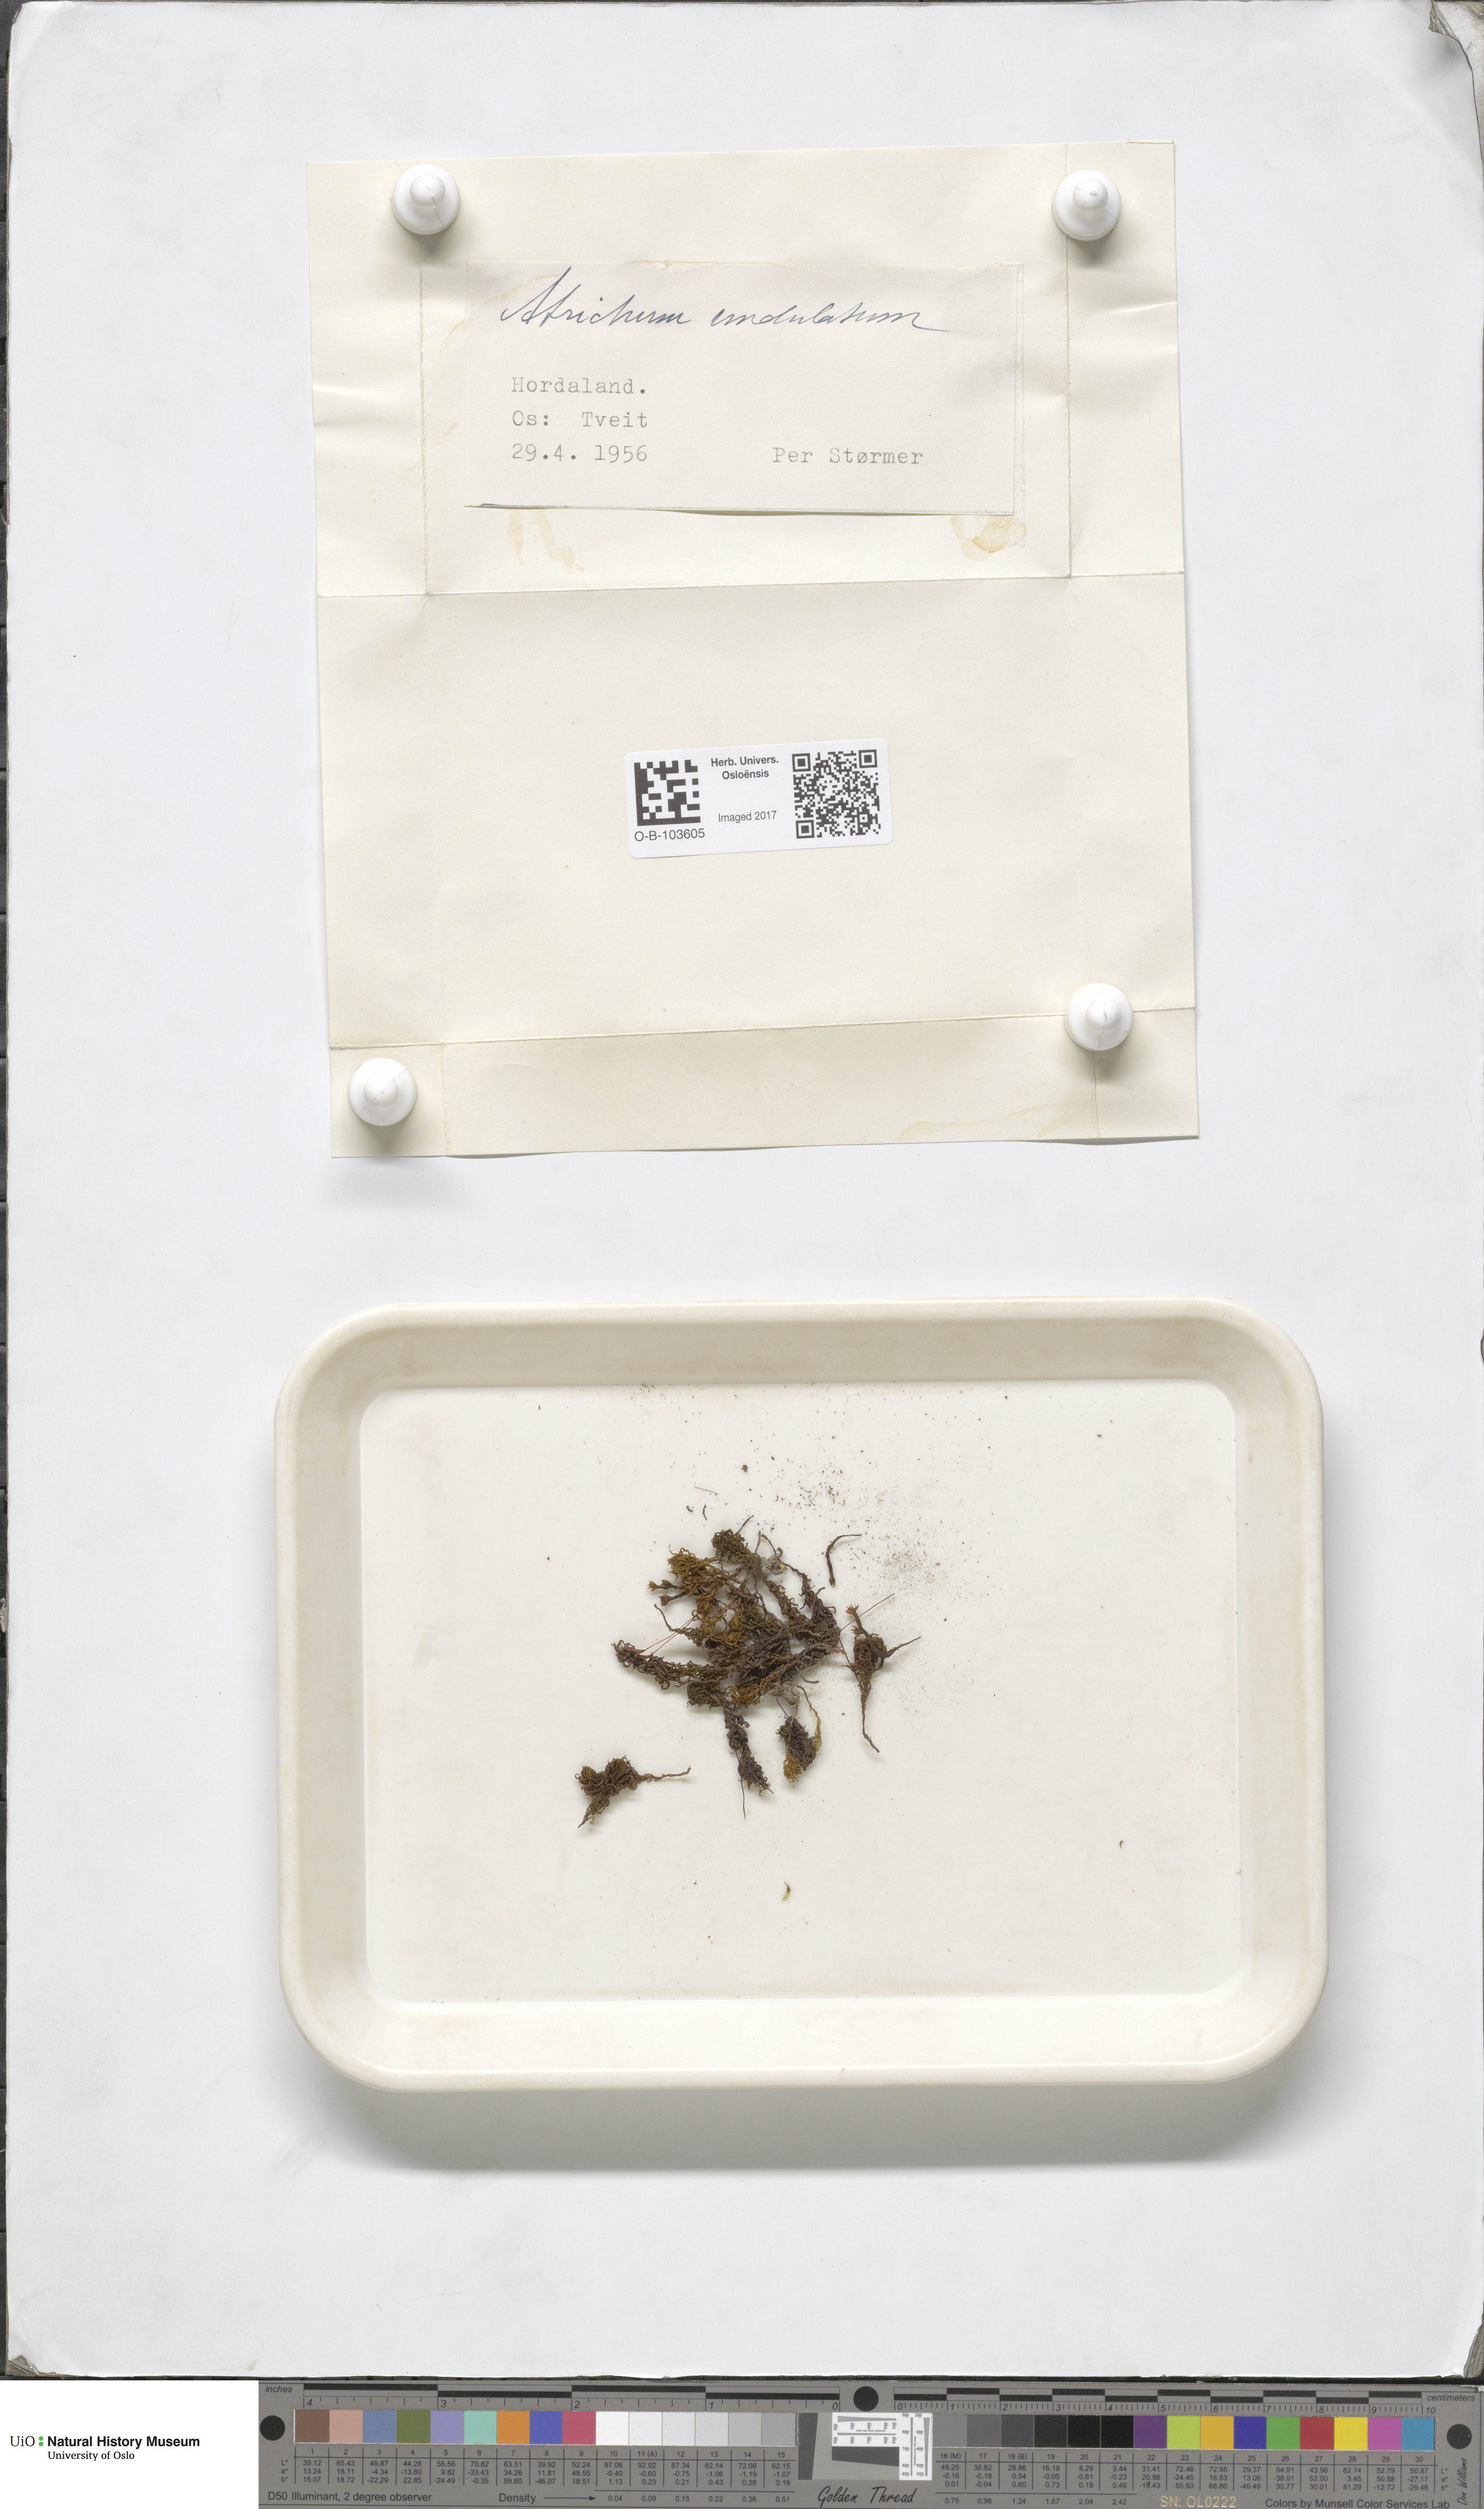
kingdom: Plantae
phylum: Bryophyta
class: Polytrichopsida
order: Polytrichales
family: Polytrichaceae
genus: Atrichum
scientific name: Atrichum undulatum
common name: Common smoothcap
